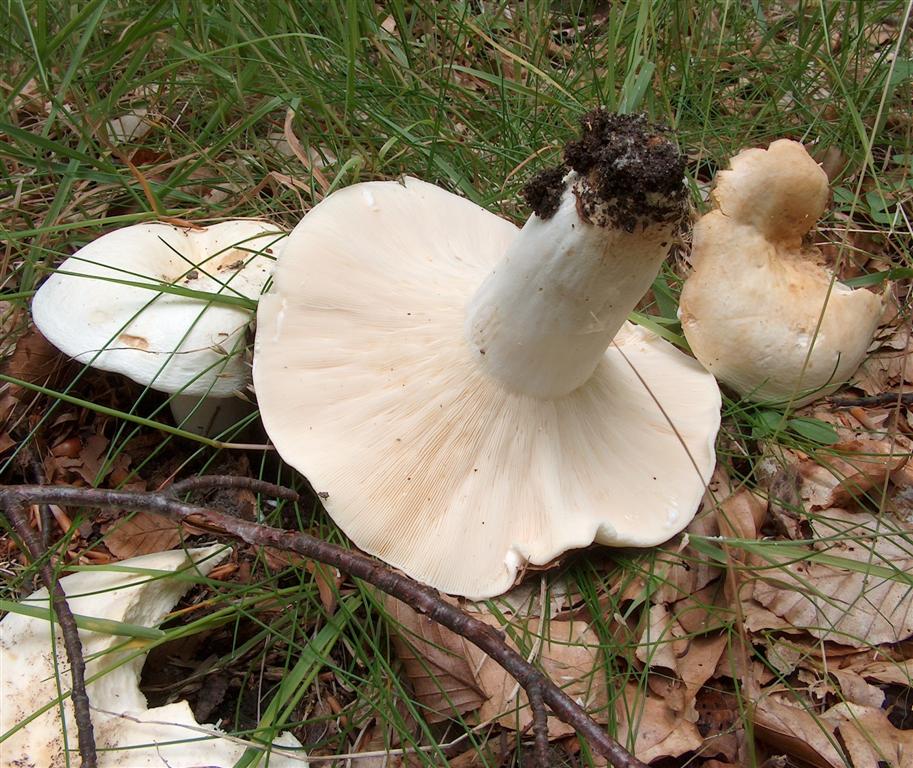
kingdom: Fungi
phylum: Basidiomycota
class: Agaricomycetes
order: Russulales
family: Russulaceae
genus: Lactifluus
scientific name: Lactifluus piperatus
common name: peber-mælkehat
